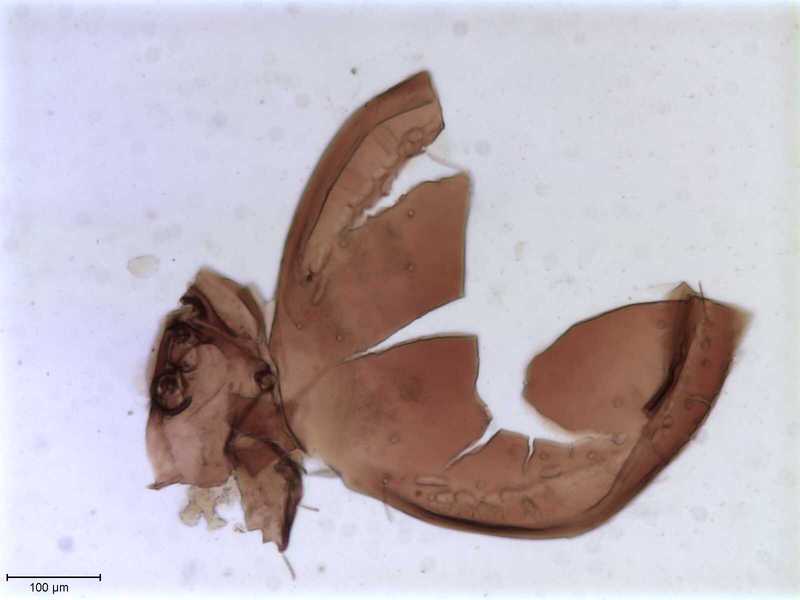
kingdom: Animalia
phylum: Arthropoda
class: Arachnida
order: Sarcoptiformes
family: Oribatulidae
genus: Oribatula
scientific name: Oribatula
